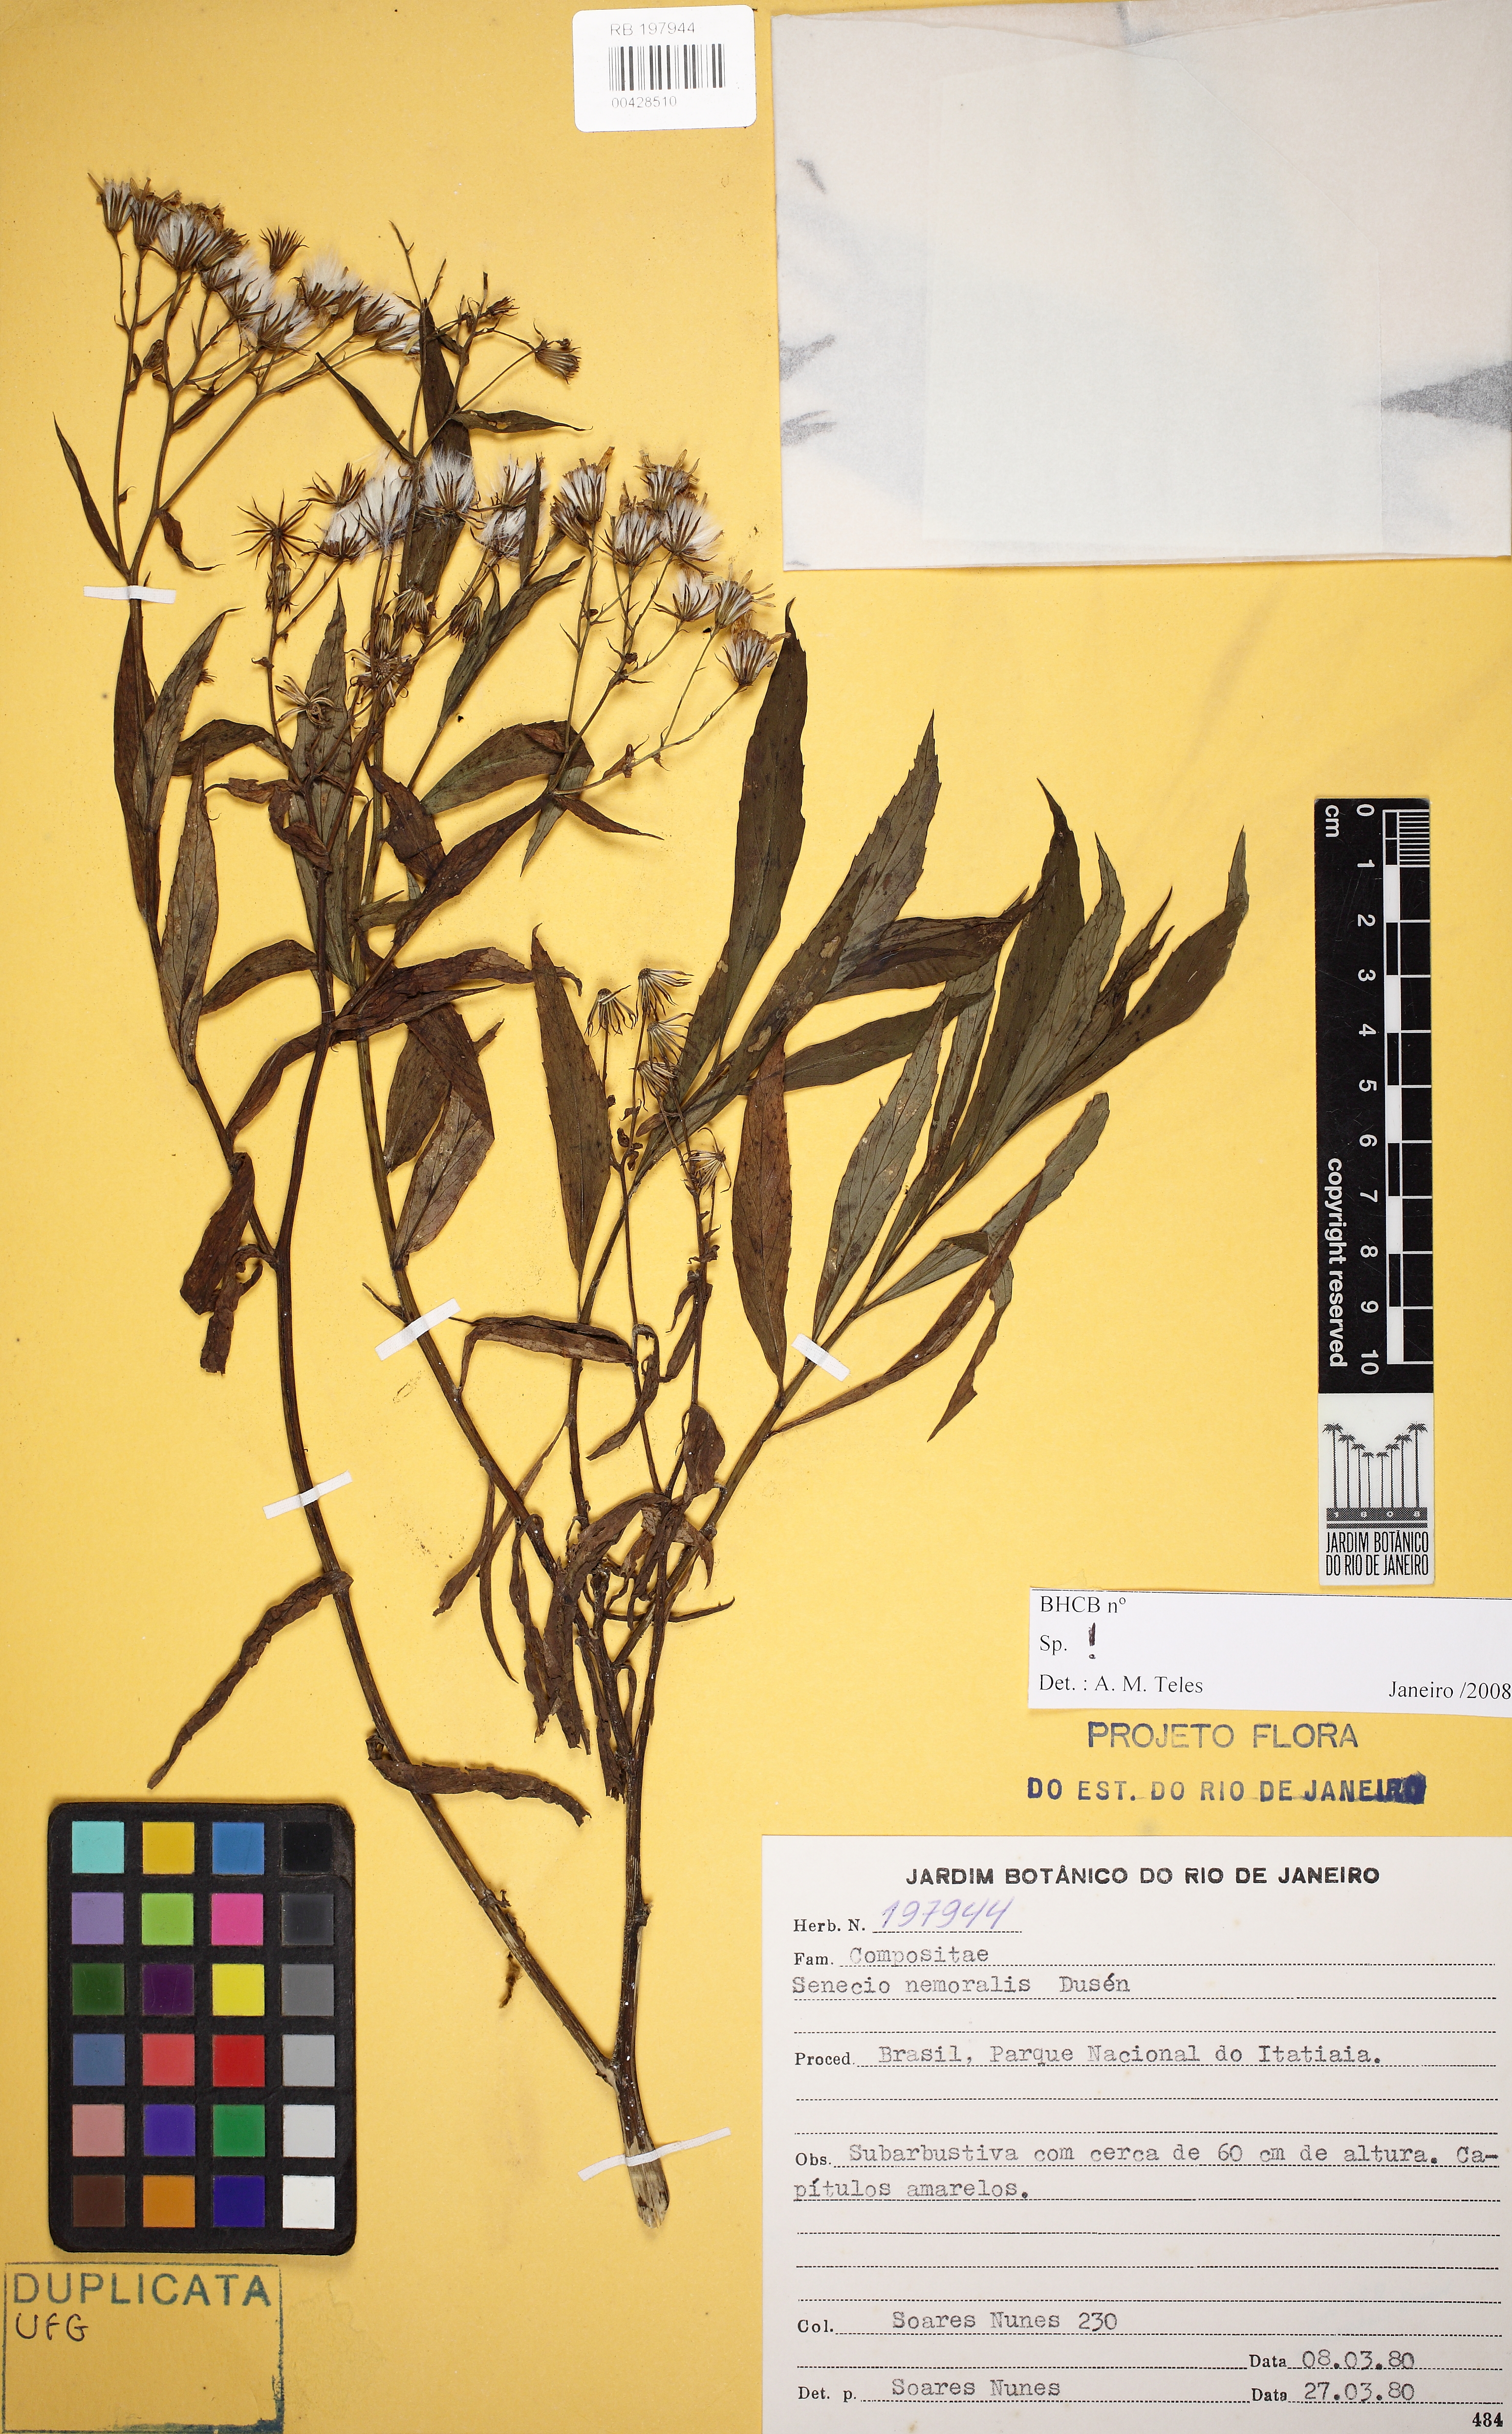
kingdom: Plantae
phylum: Tracheophyta
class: Magnoliopsida
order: Asterales
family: Asteraceae
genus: Senecio
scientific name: Senecio nemoralis
